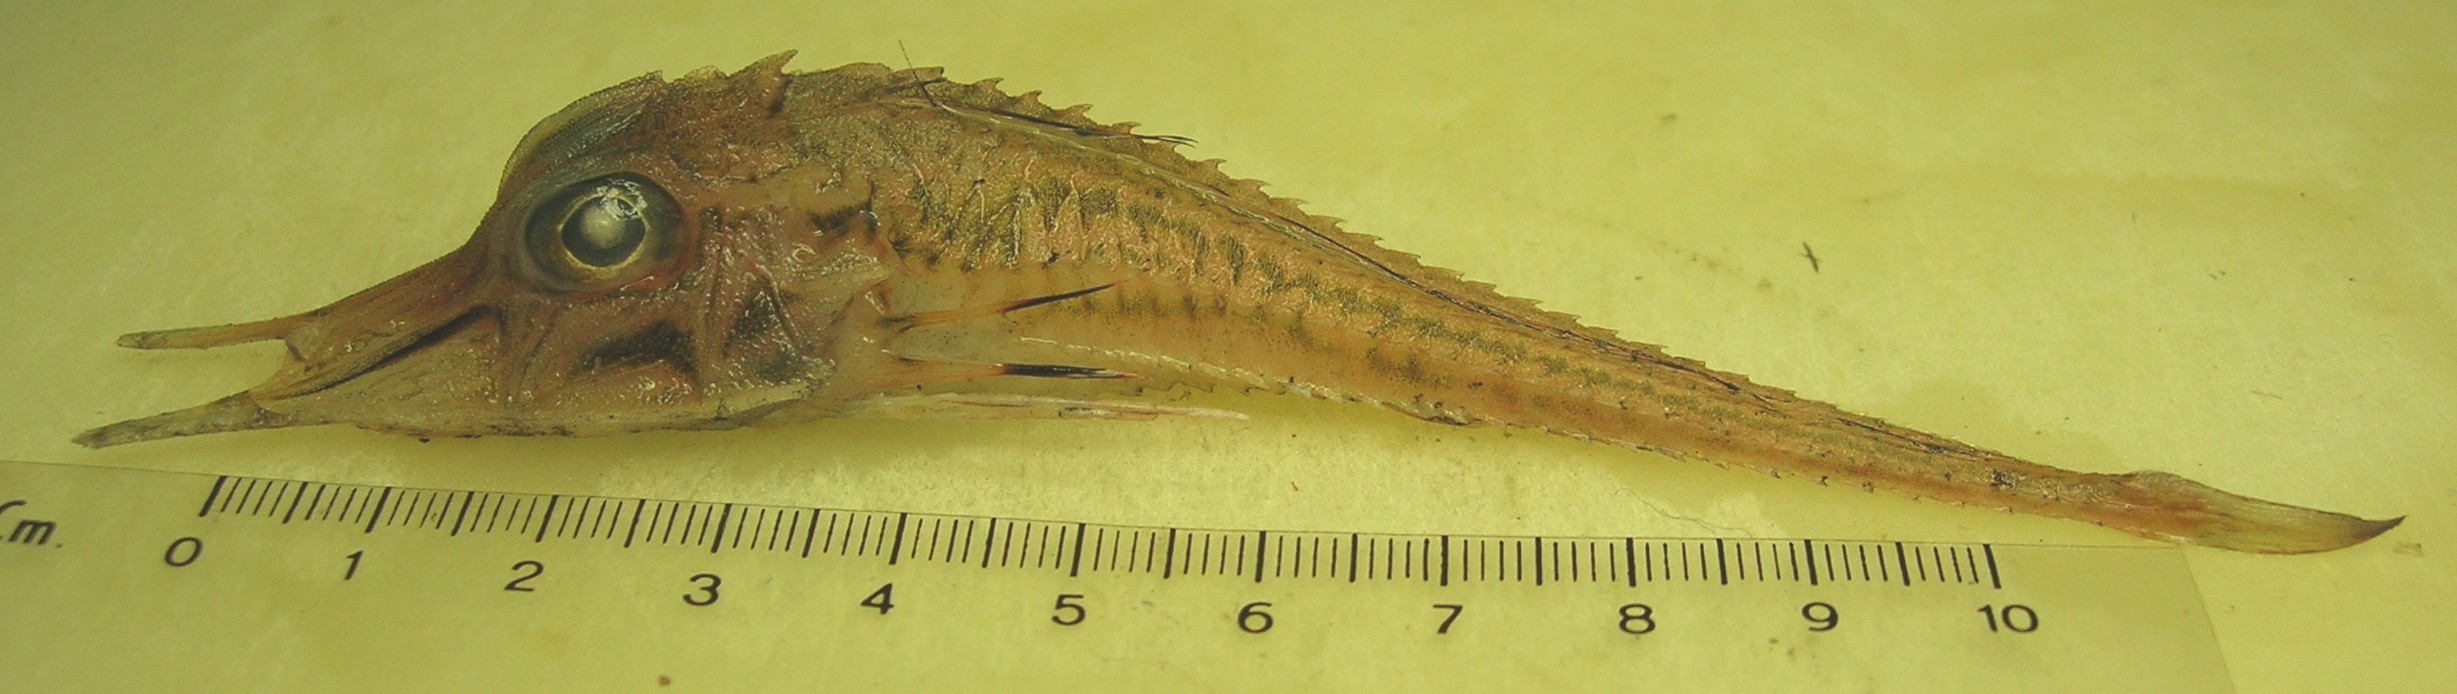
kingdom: Animalia
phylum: Chordata
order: Scorpaeniformes
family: Peristediidae
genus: Peristedion
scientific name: Peristedion weberi
